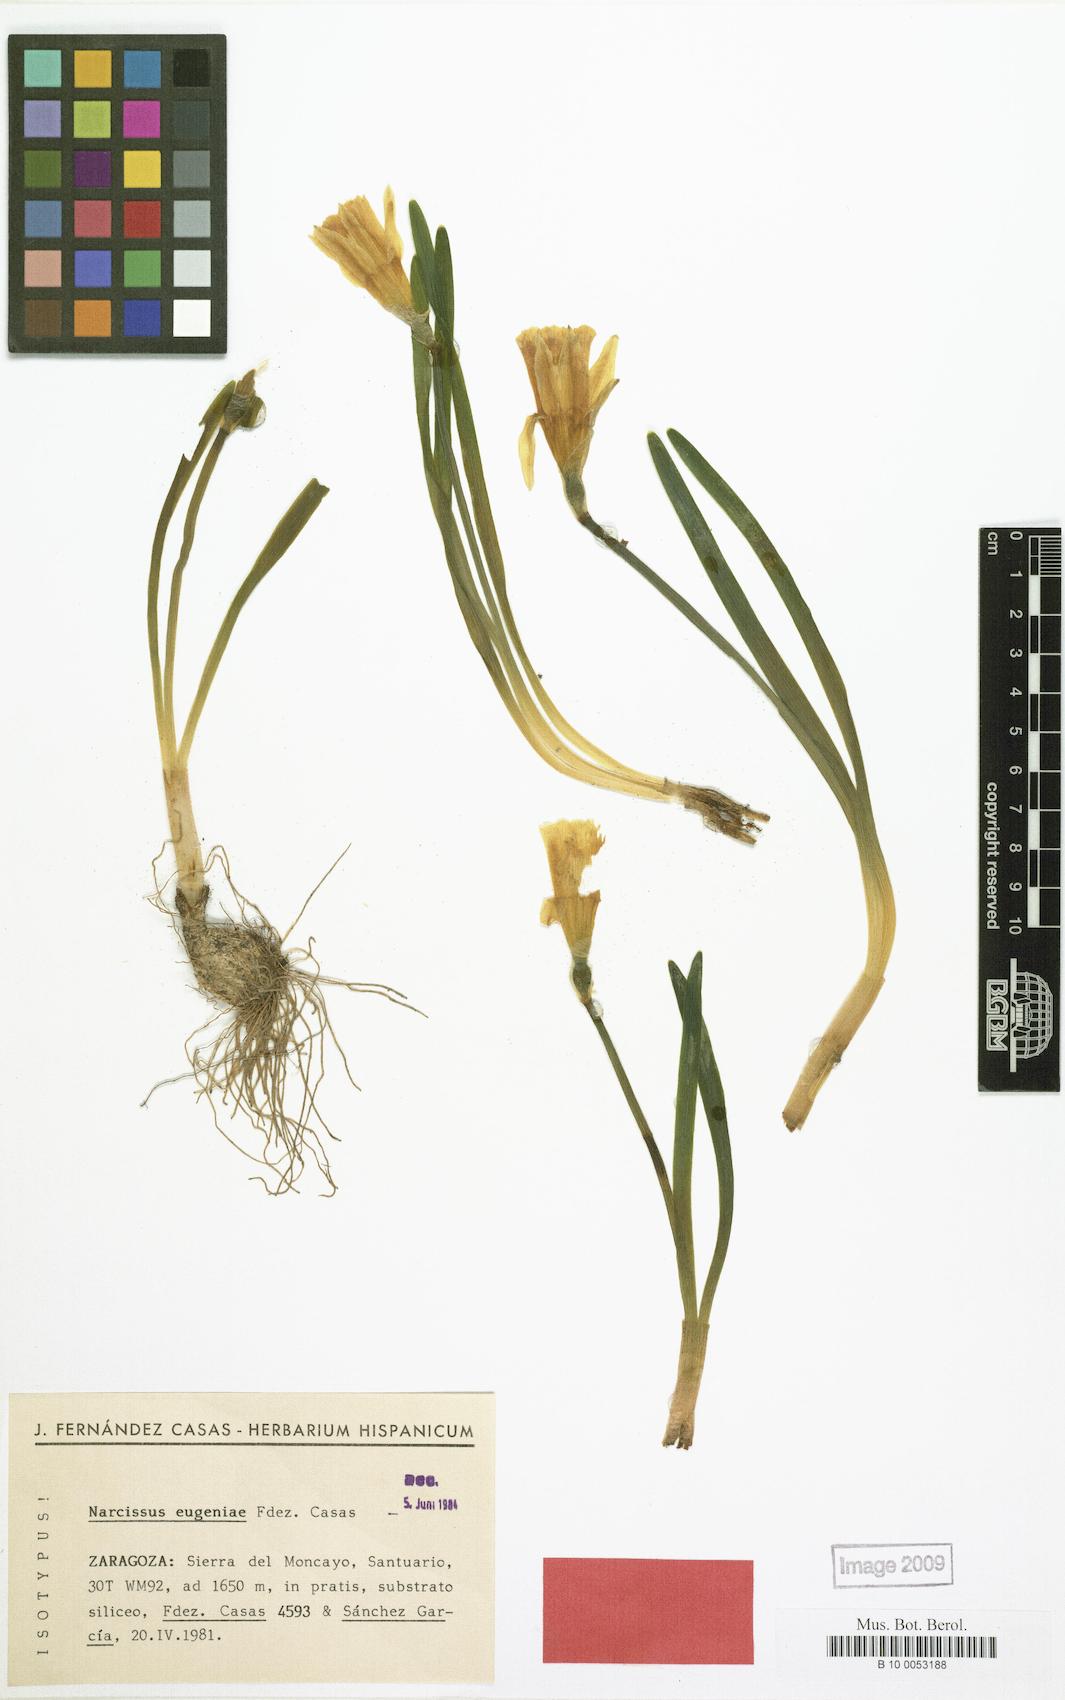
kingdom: Plantae
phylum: Tracheophyta
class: Liliopsida
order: Asparagales
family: Amaryllidaceae
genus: Narcissus
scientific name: Narcissus hispanicus
